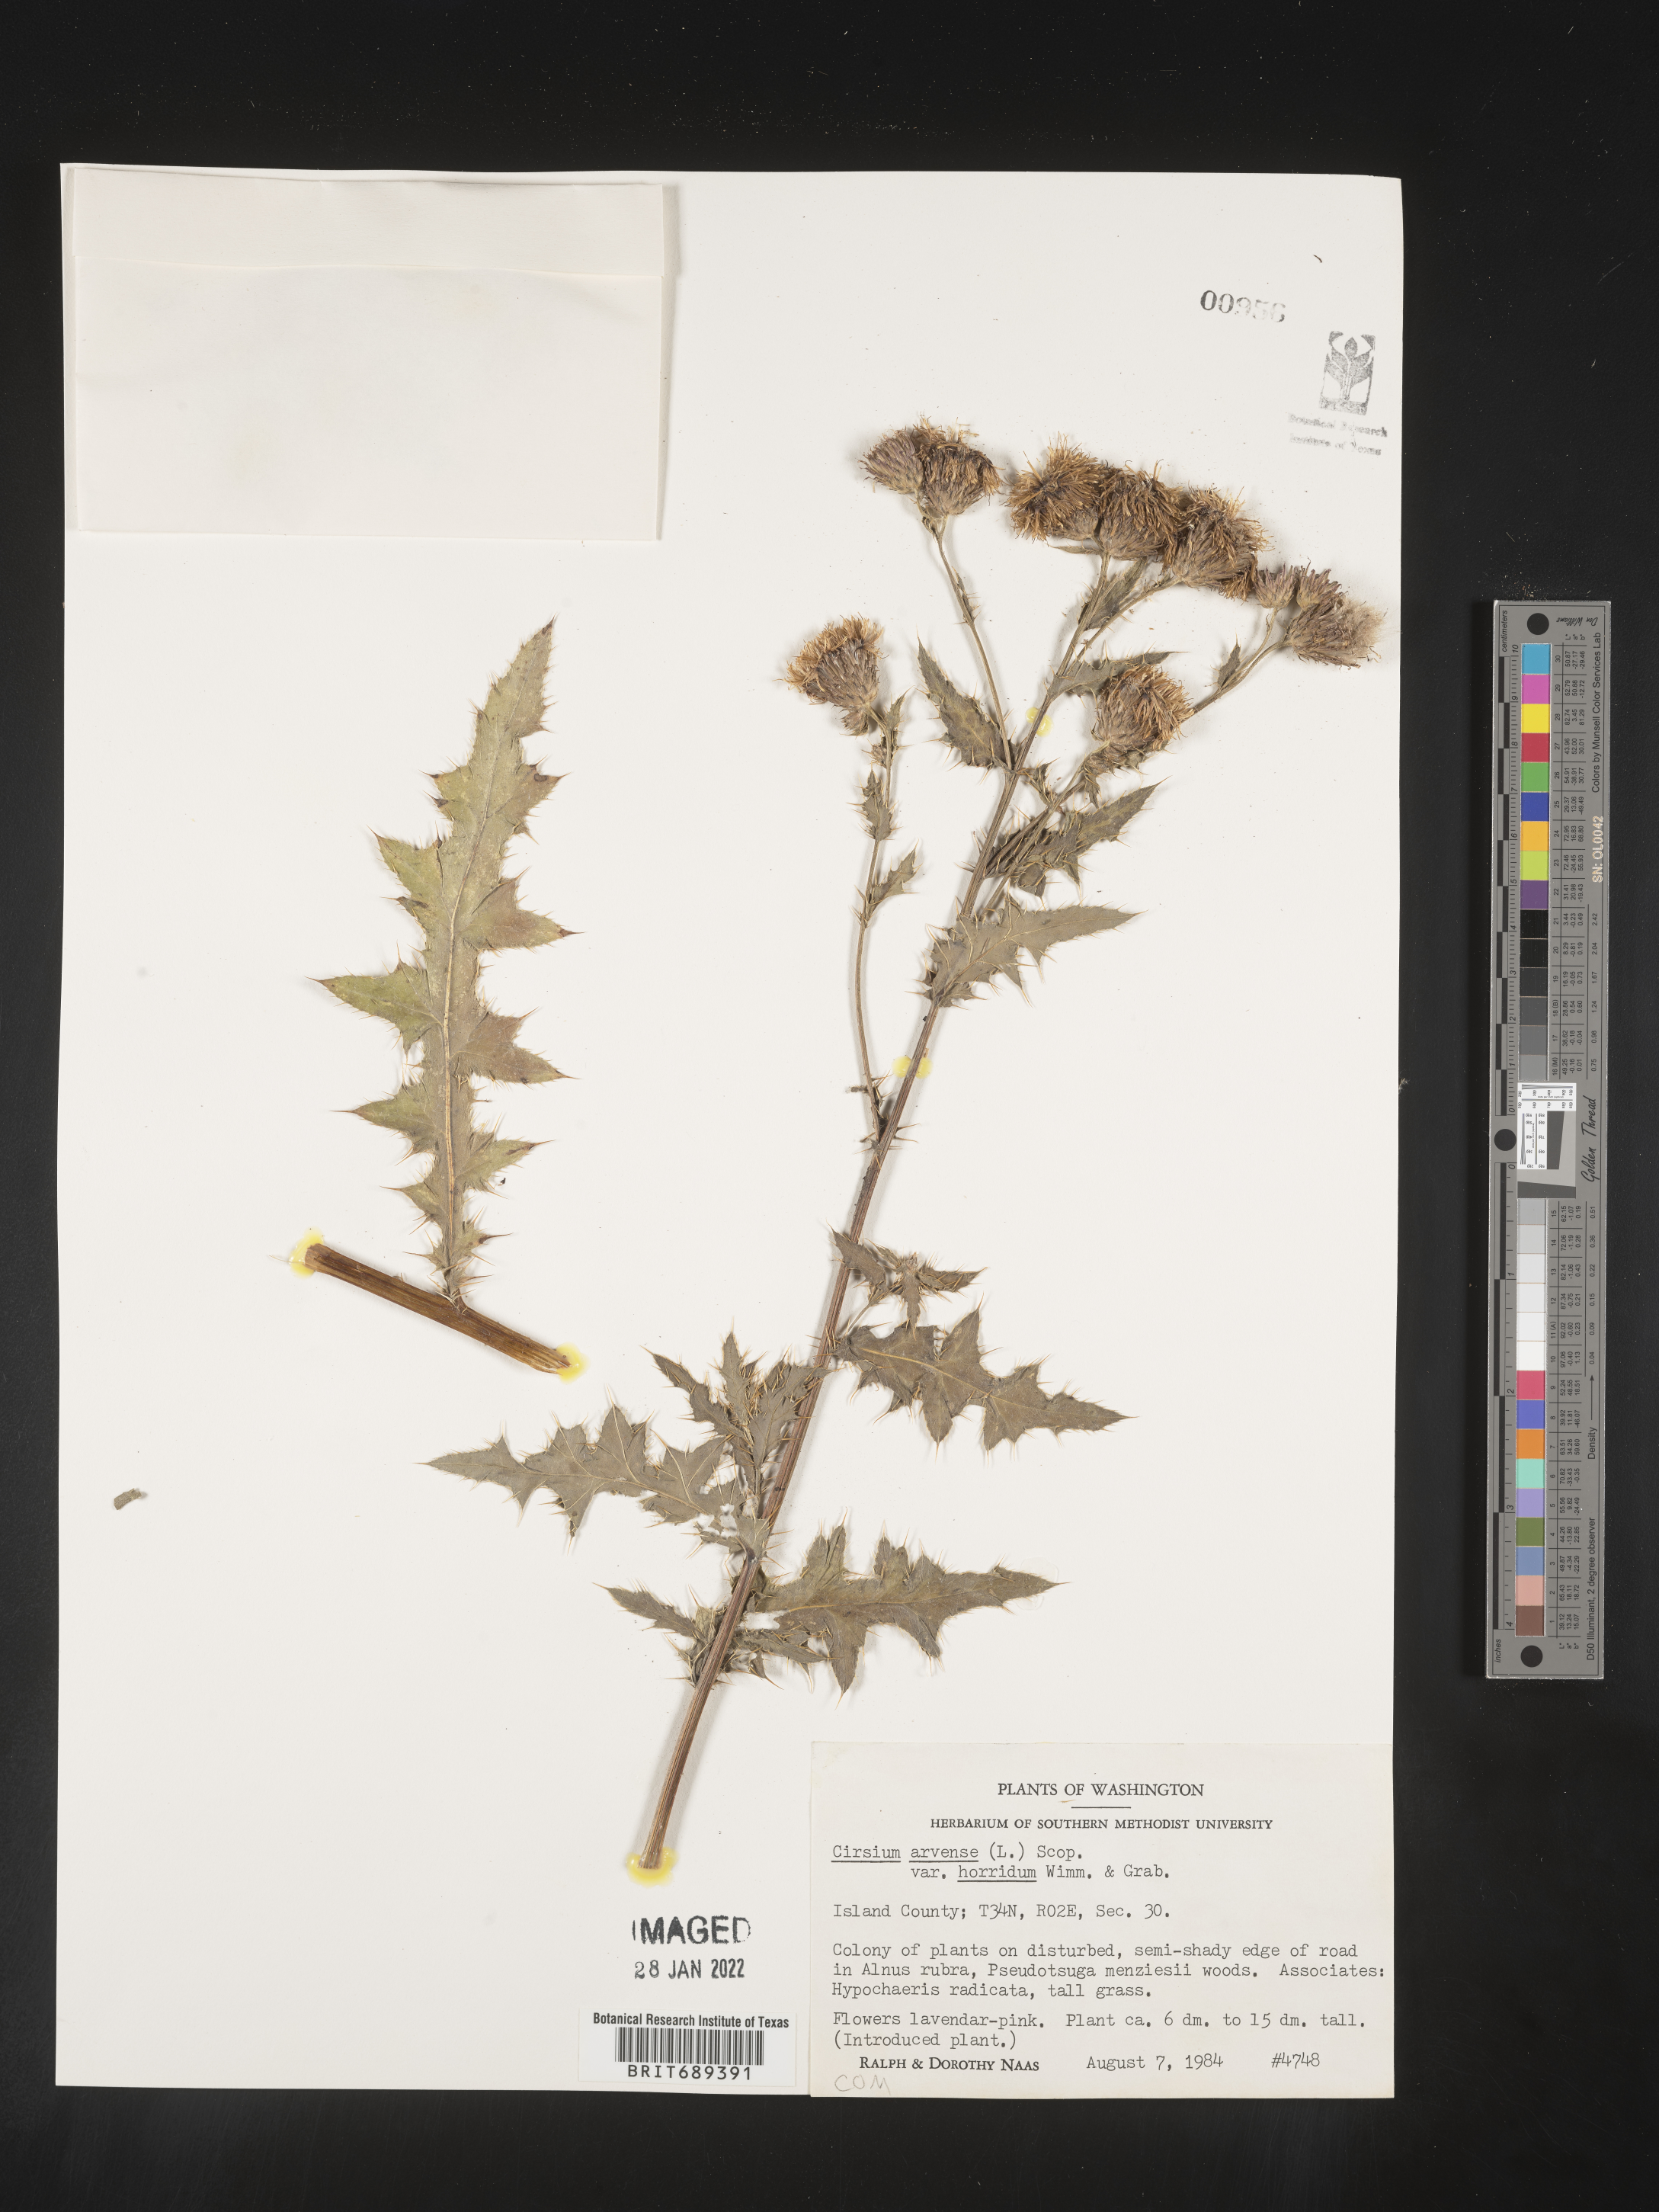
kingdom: Plantae
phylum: Tracheophyta
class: Magnoliopsida
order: Asterales
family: Asteraceae
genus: Cirsium
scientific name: Cirsium arvense
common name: Creeping thistle
